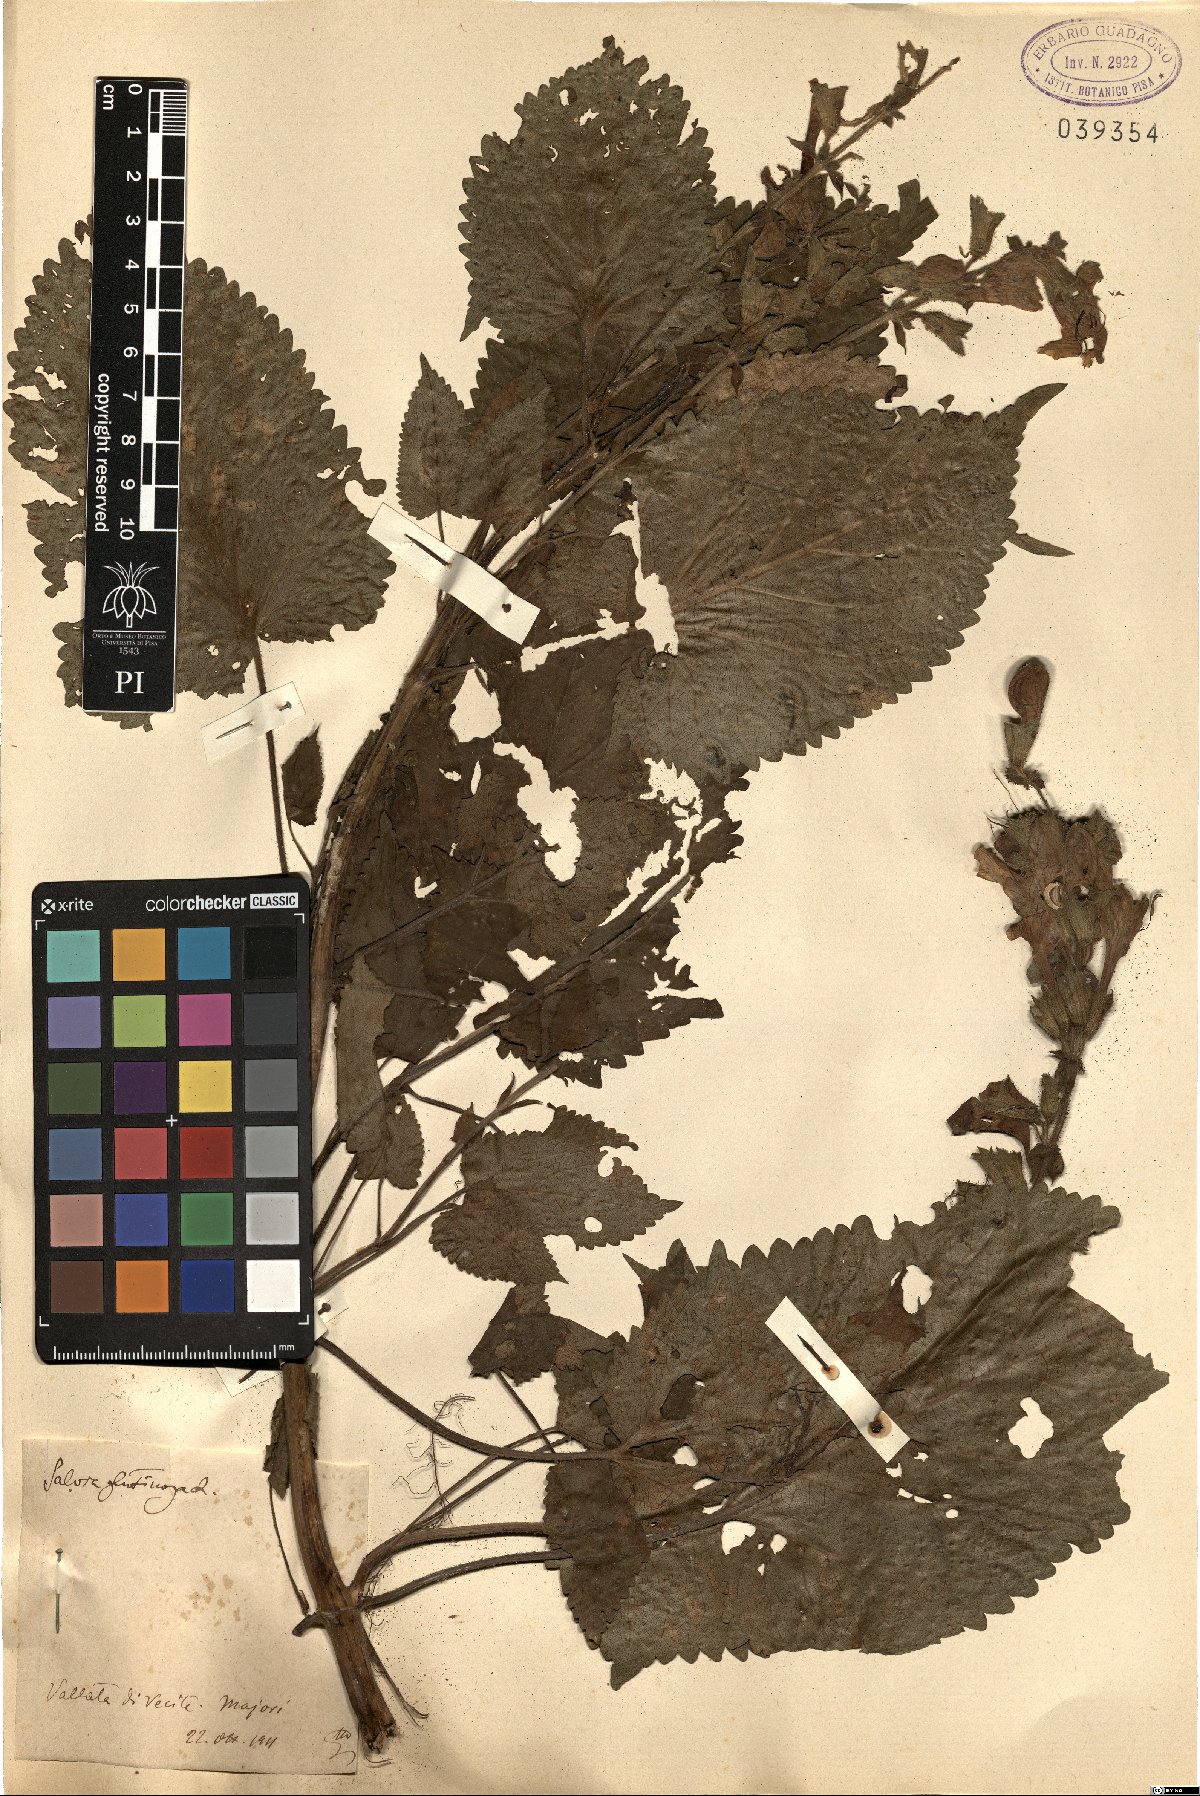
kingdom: Plantae
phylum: Tracheophyta
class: Magnoliopsida
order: Lamiales
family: Lamiaceae
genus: Salvia
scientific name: Salvia glutinosa
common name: Sticky clary
